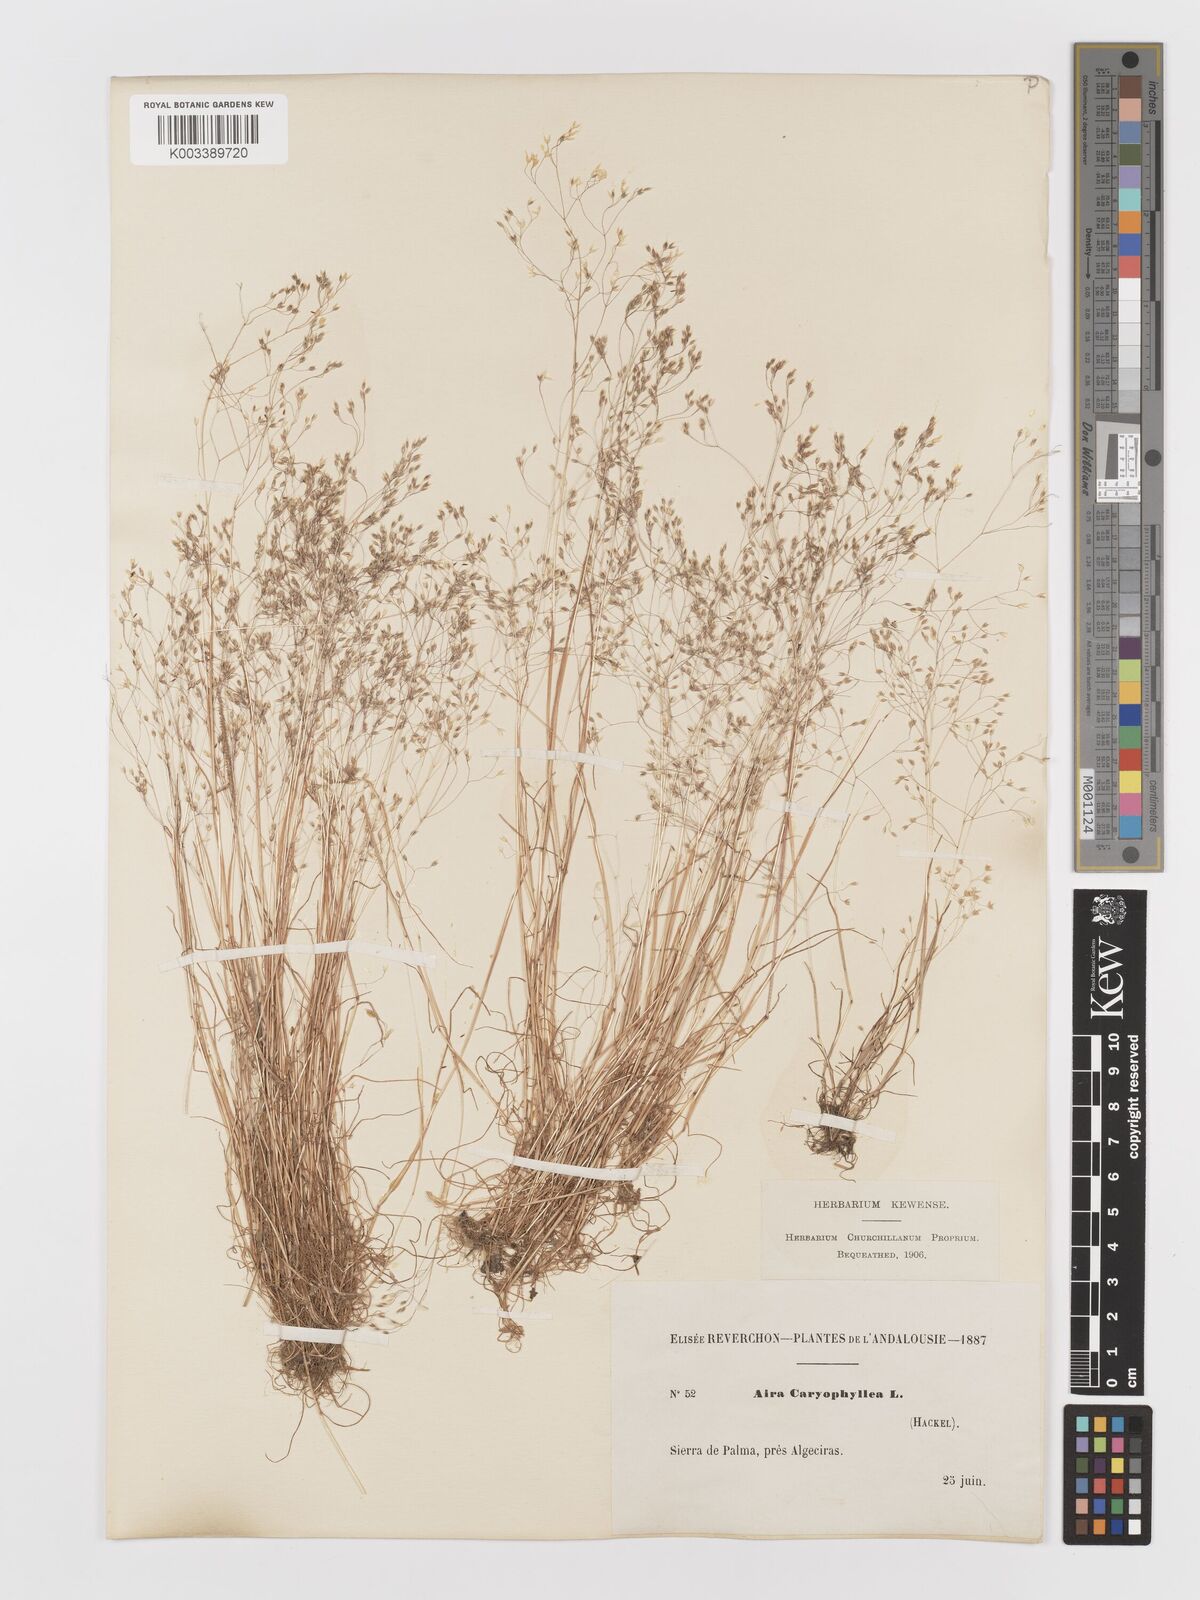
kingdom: Plantae
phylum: Tracheophyta
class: Liliopsida
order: Poales
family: Poaceae
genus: Aira
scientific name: Aira caryophyllea
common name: Silver hairgrass
